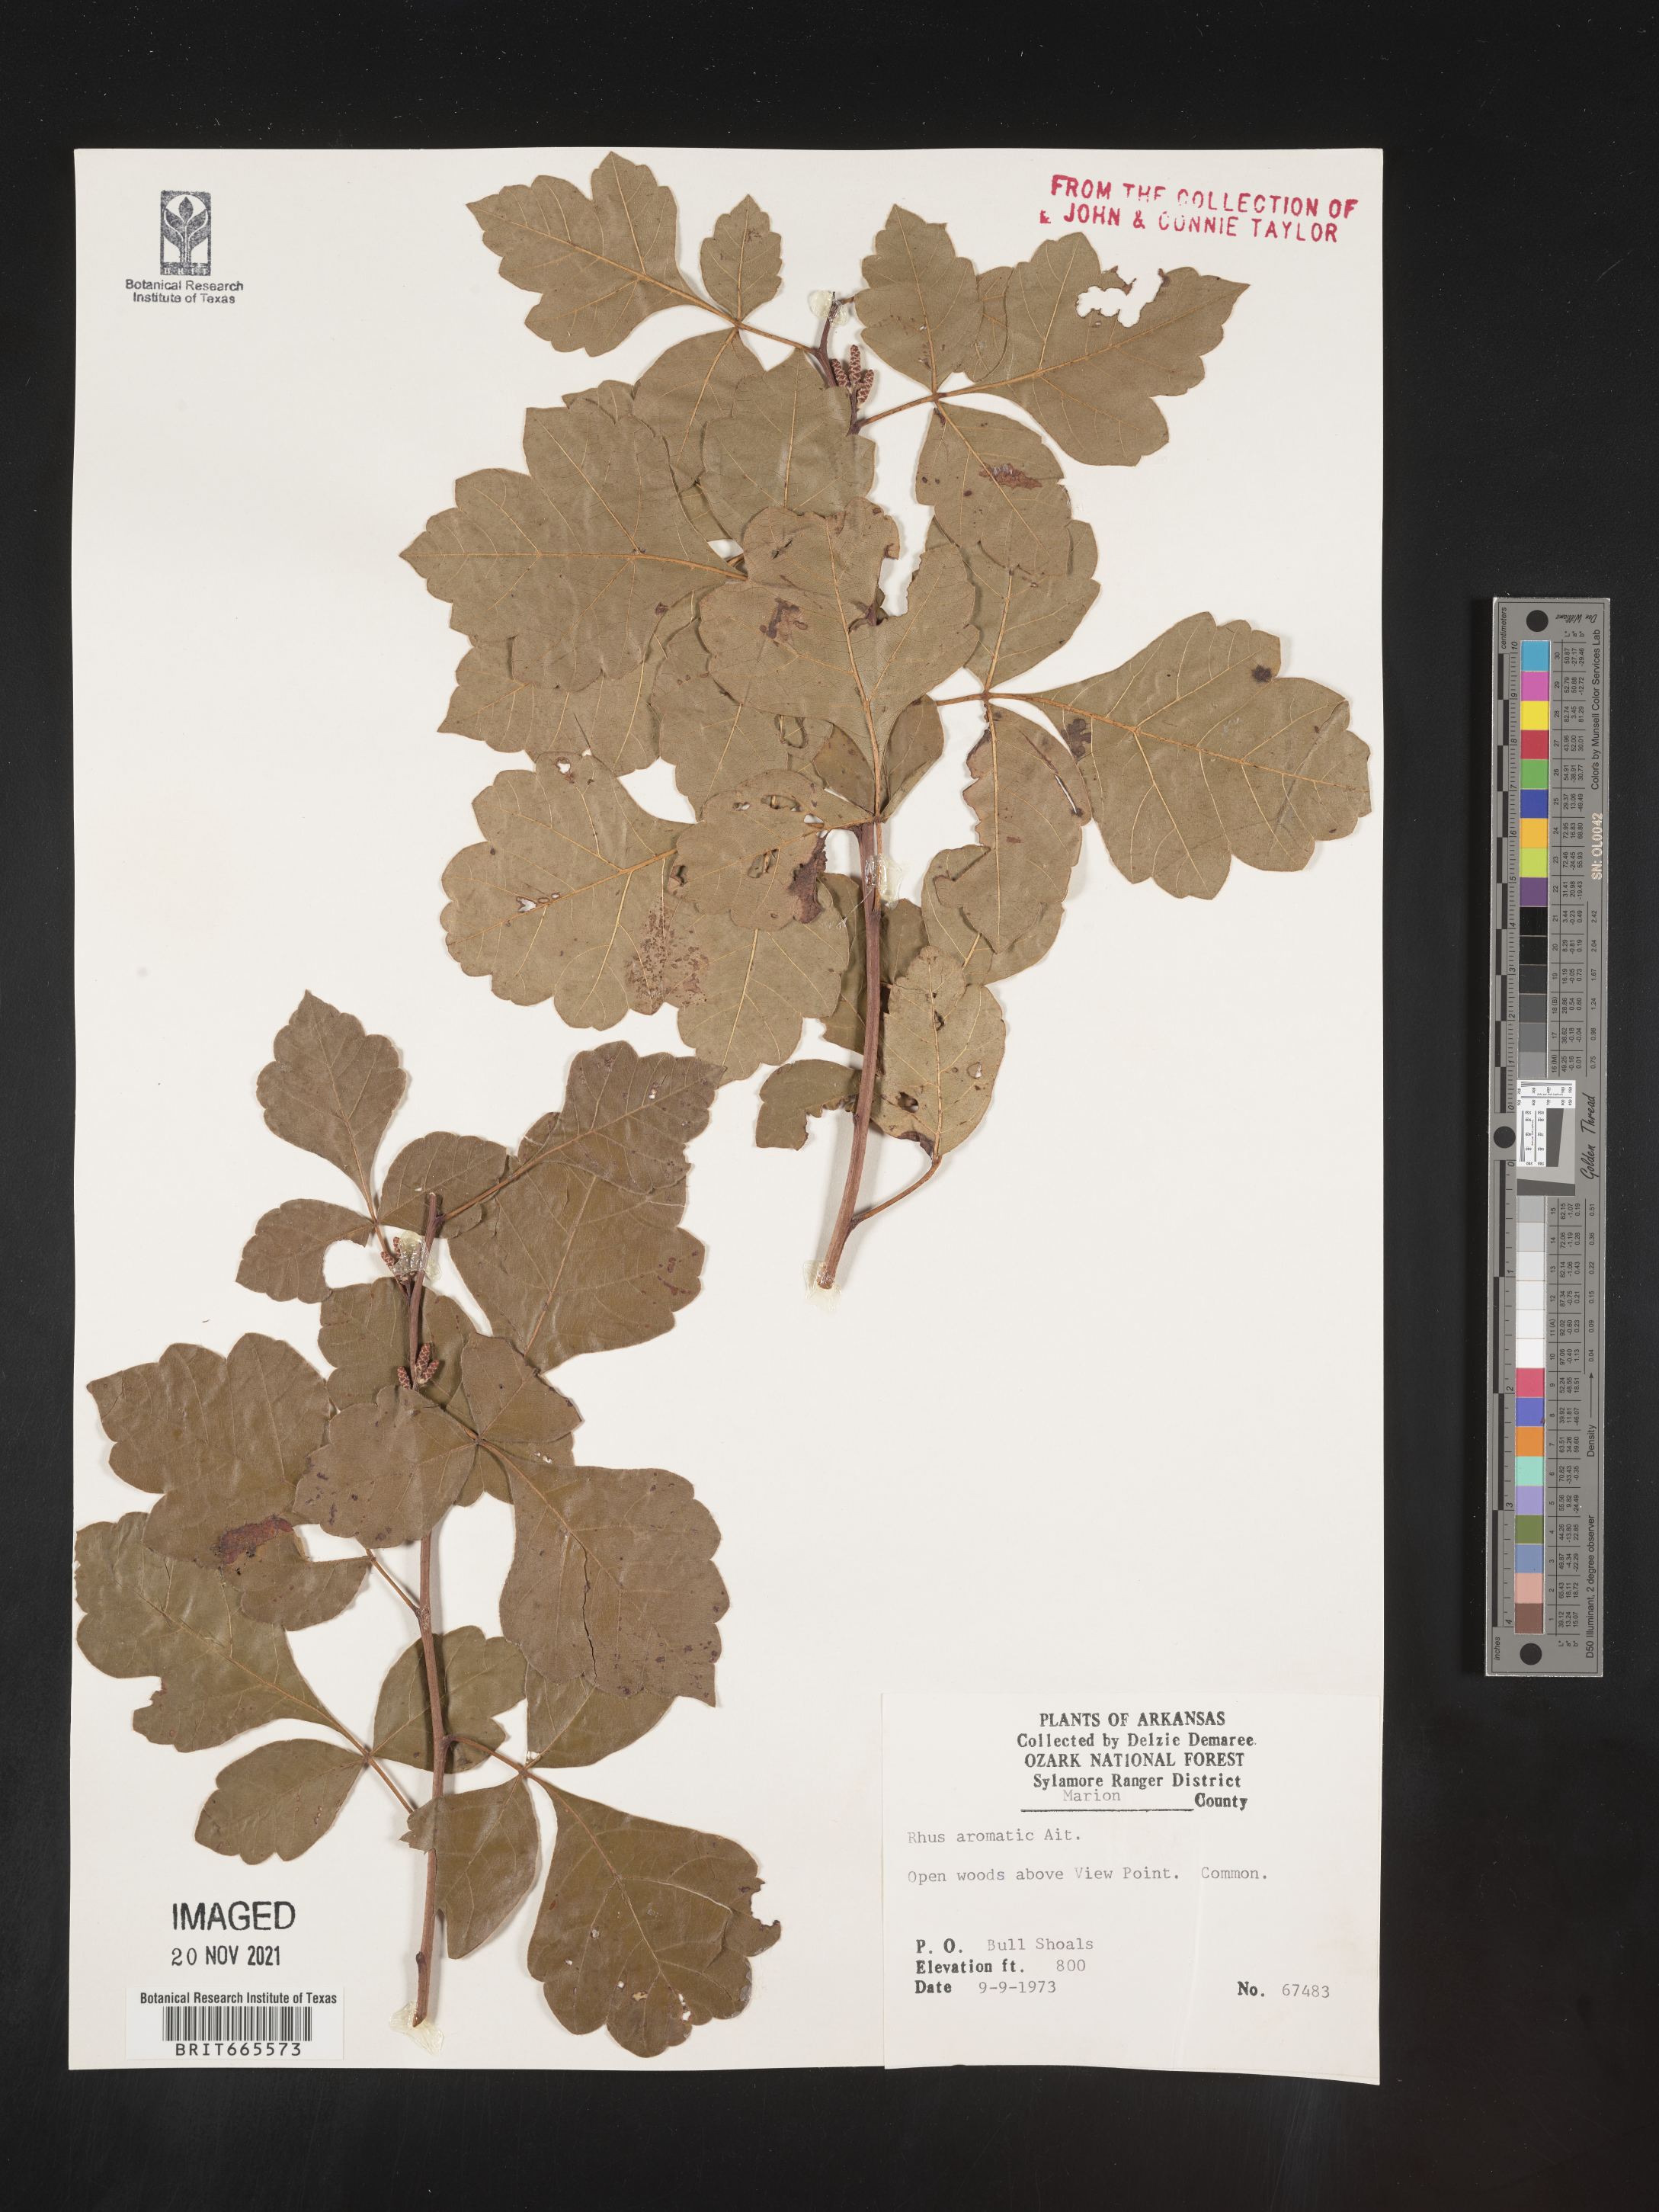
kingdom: Plantae
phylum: Tracheophyta
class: Magnoliopsida
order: Sapindales
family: Anacardiaceae
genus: Rhus
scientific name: Rhus aromatica
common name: Aromatic sumac
